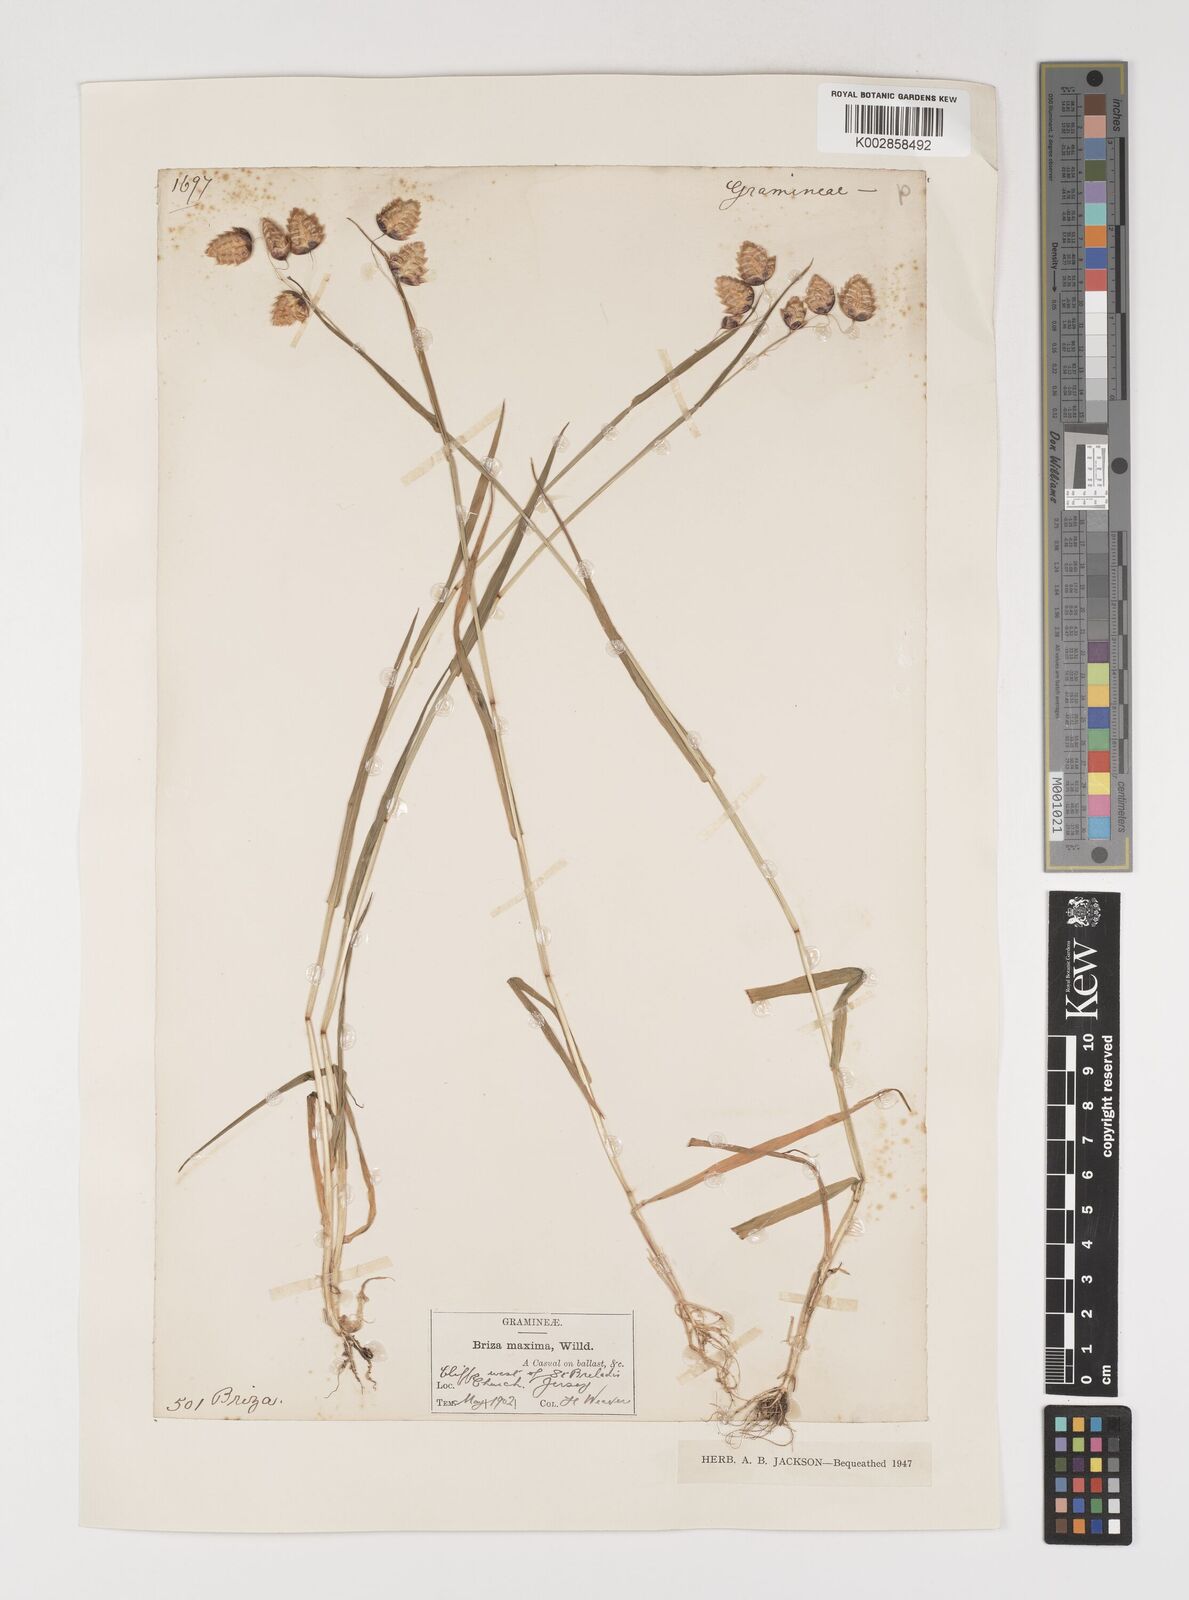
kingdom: Plantae
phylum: Tracheophyta
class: Liliopsida
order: Poales
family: Poaceae
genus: Briza
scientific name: Briza maxima
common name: Big quakinggrass
